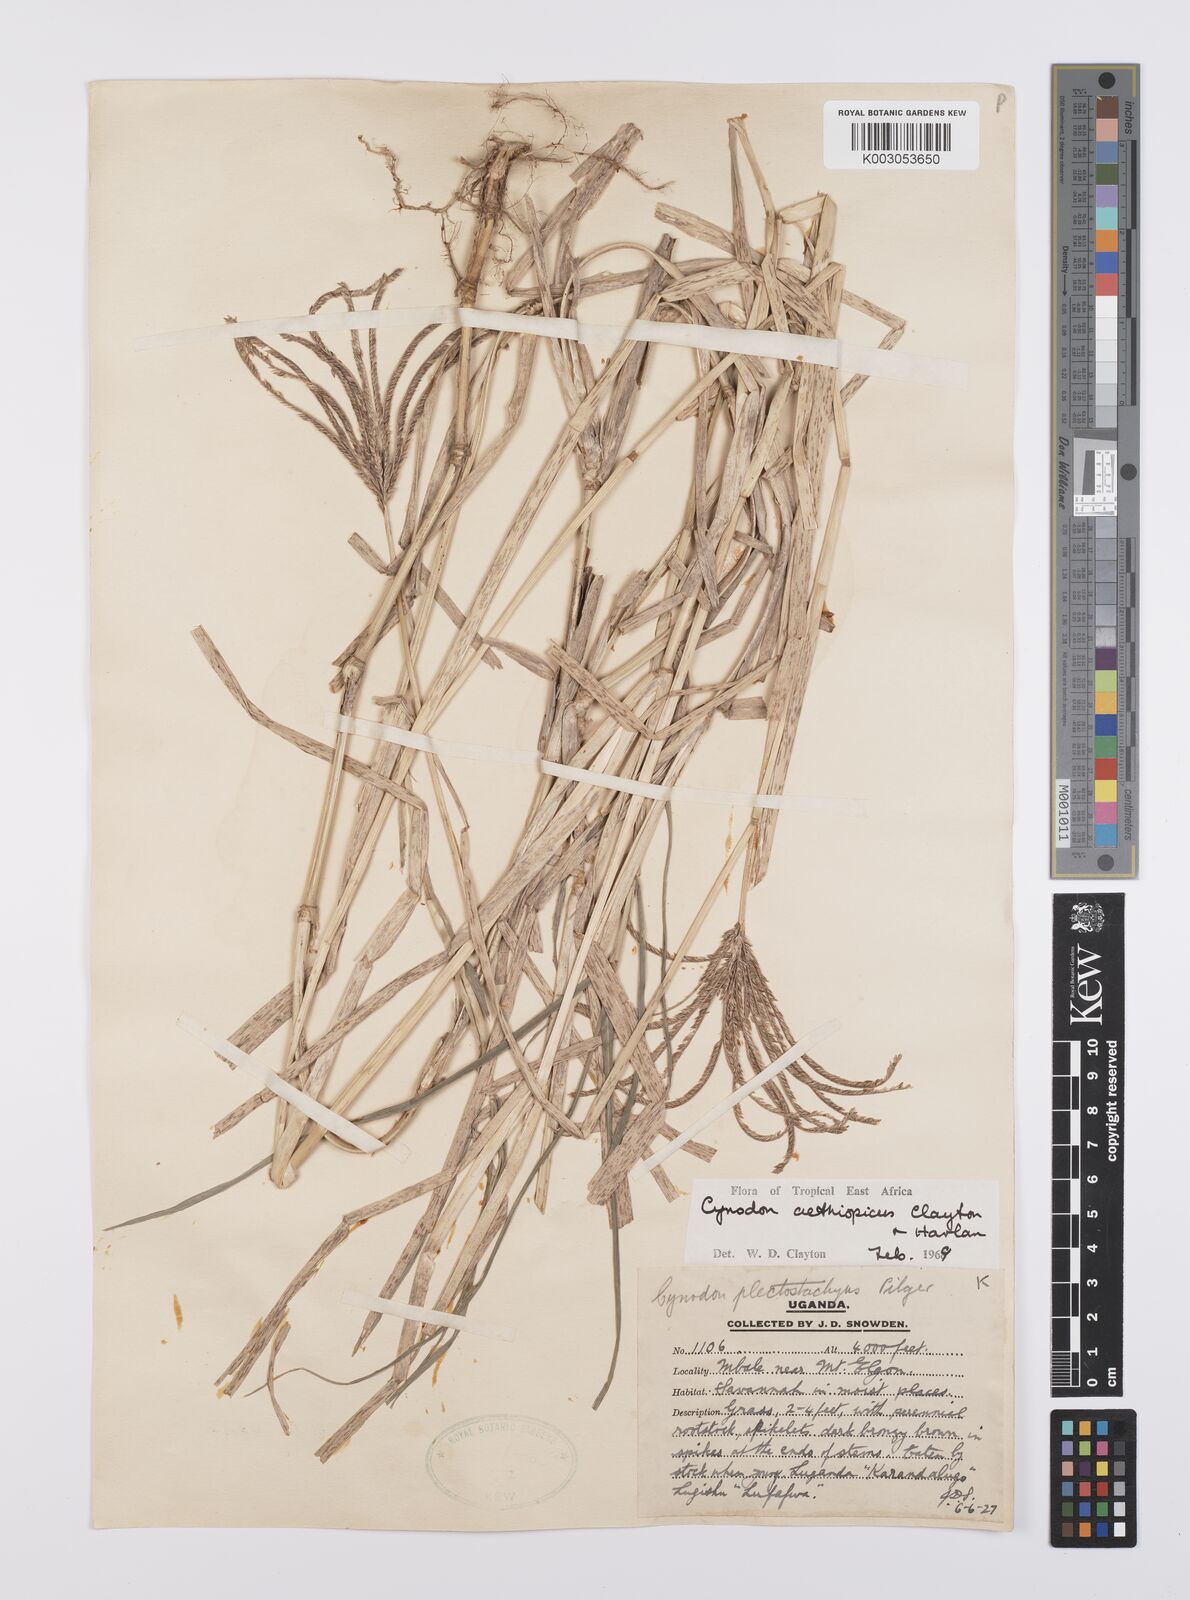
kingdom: Plantae
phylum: Tracheophyta
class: Liliopsida
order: Poales
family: Poaceae
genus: Cynodon
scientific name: Cynodon aethiopicus
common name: Ethiopian dogstooth grass
